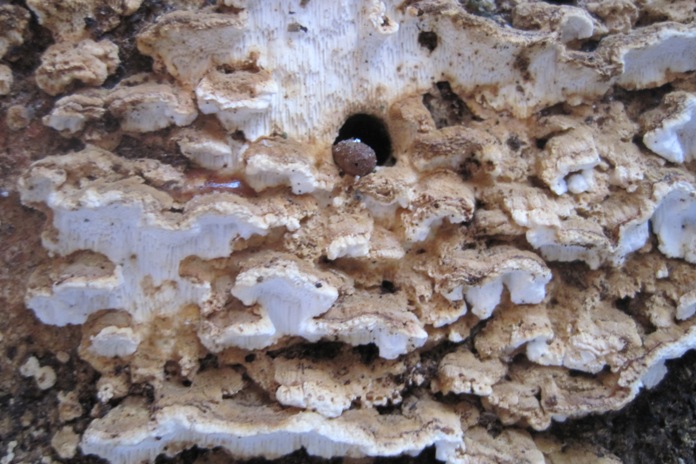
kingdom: Fungi
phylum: Basidiomycota
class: Agaricomycetes
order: Polyporales
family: Fomitopsidaceae
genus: Neoantrodia
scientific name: Neoantrodia serialis
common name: række-sejporesvamp
